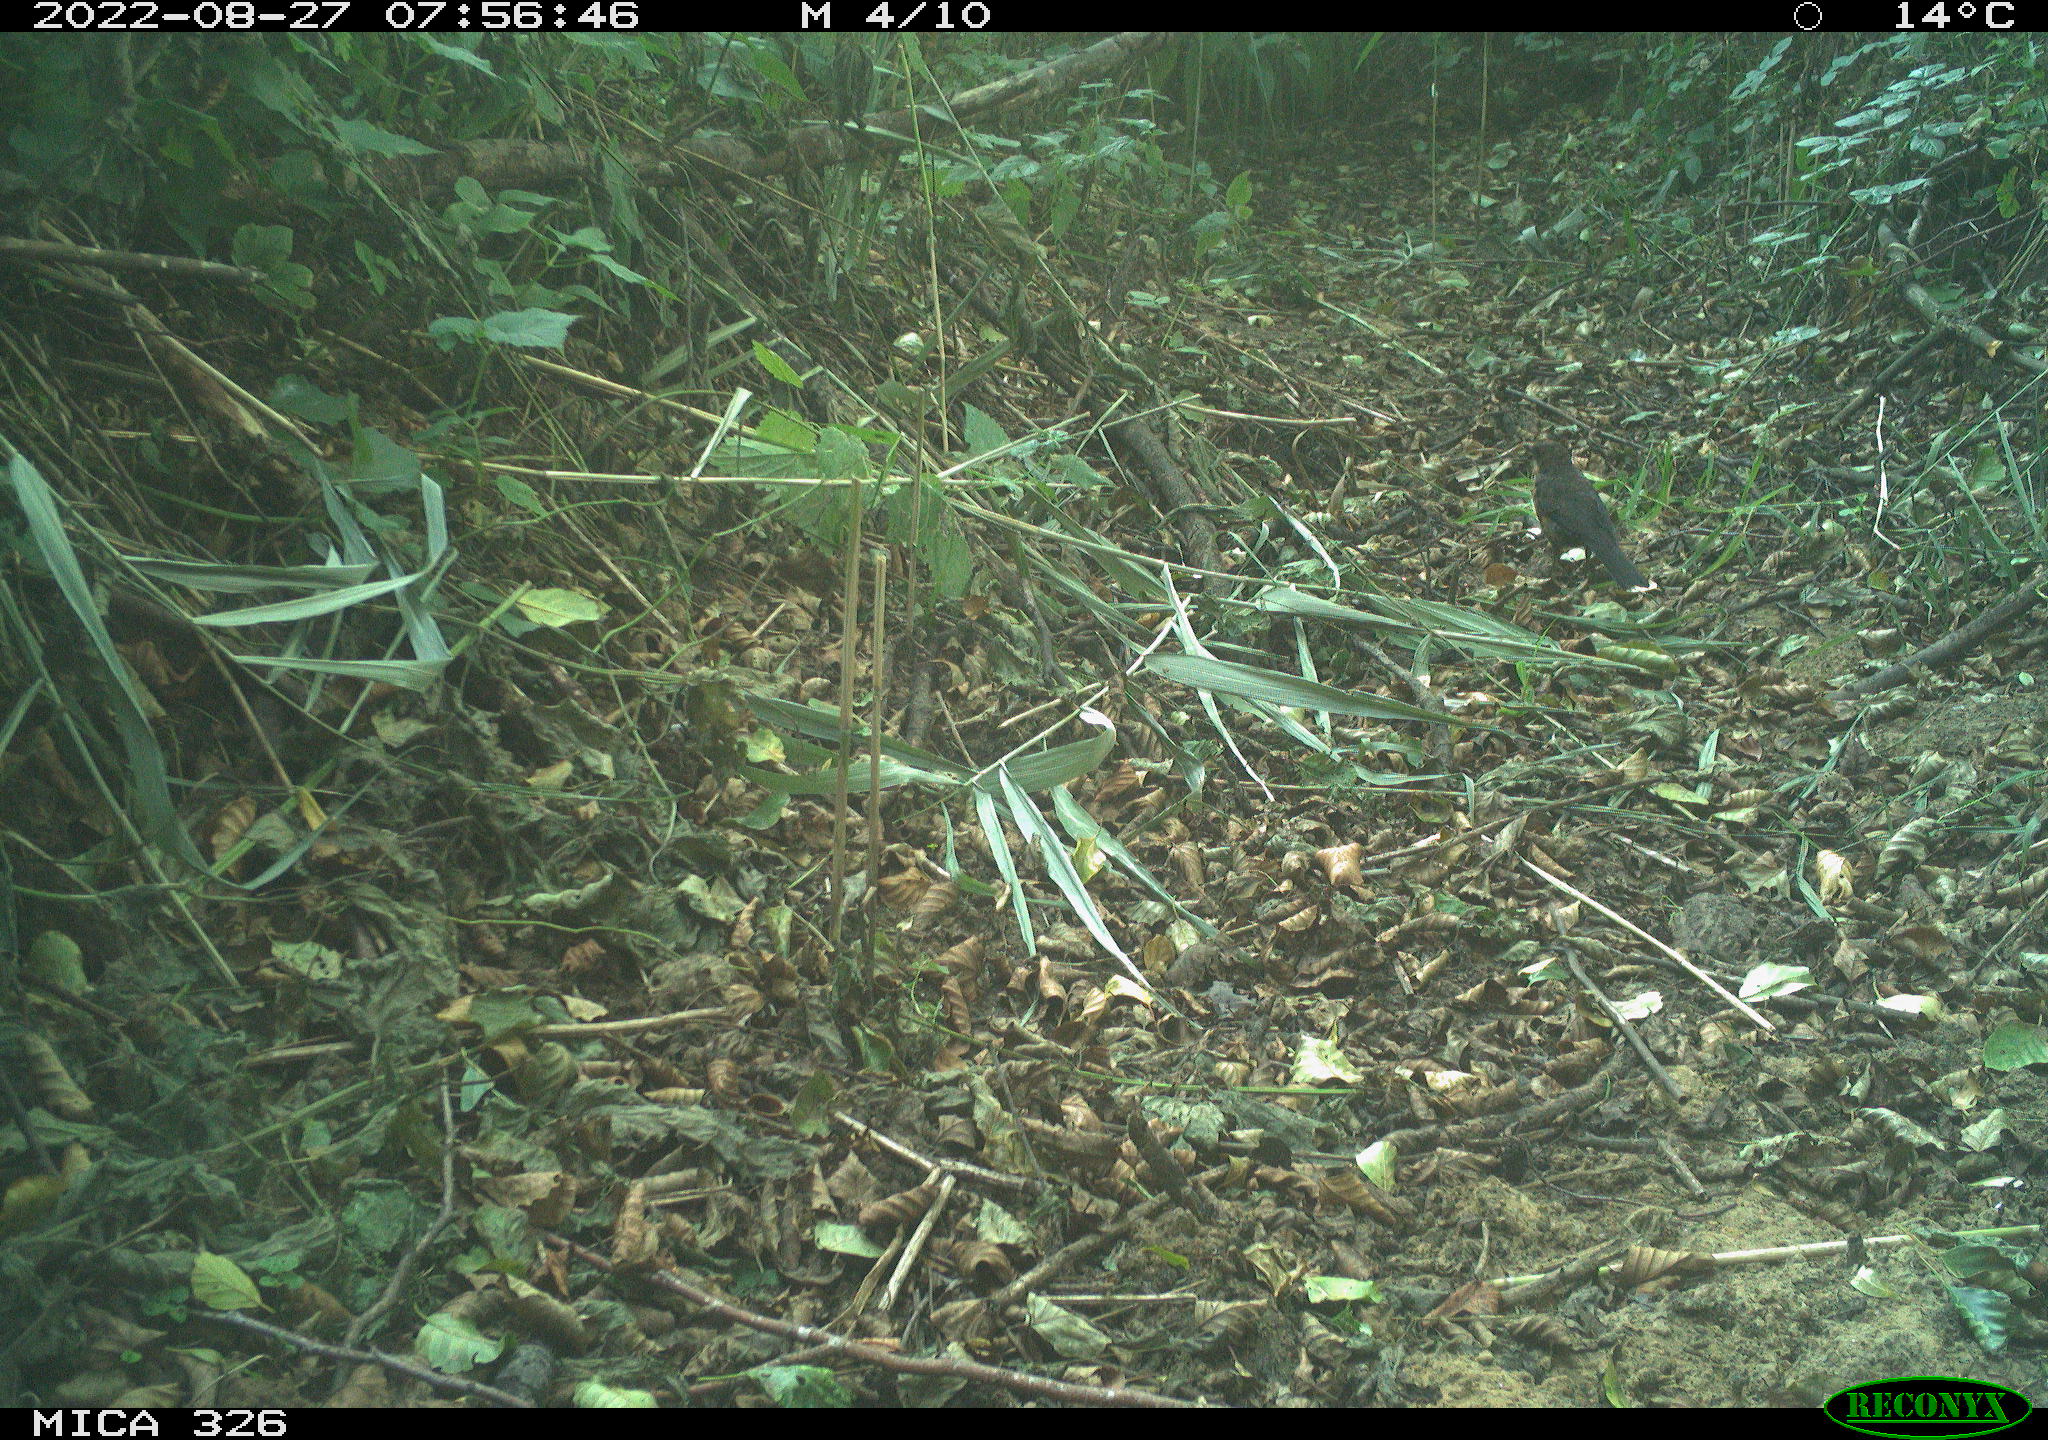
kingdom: Animalia
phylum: Chordata
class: Aves
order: Passeriformes
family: Turdidae
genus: Turdus
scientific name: Turdus merula
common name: Common blackbird
